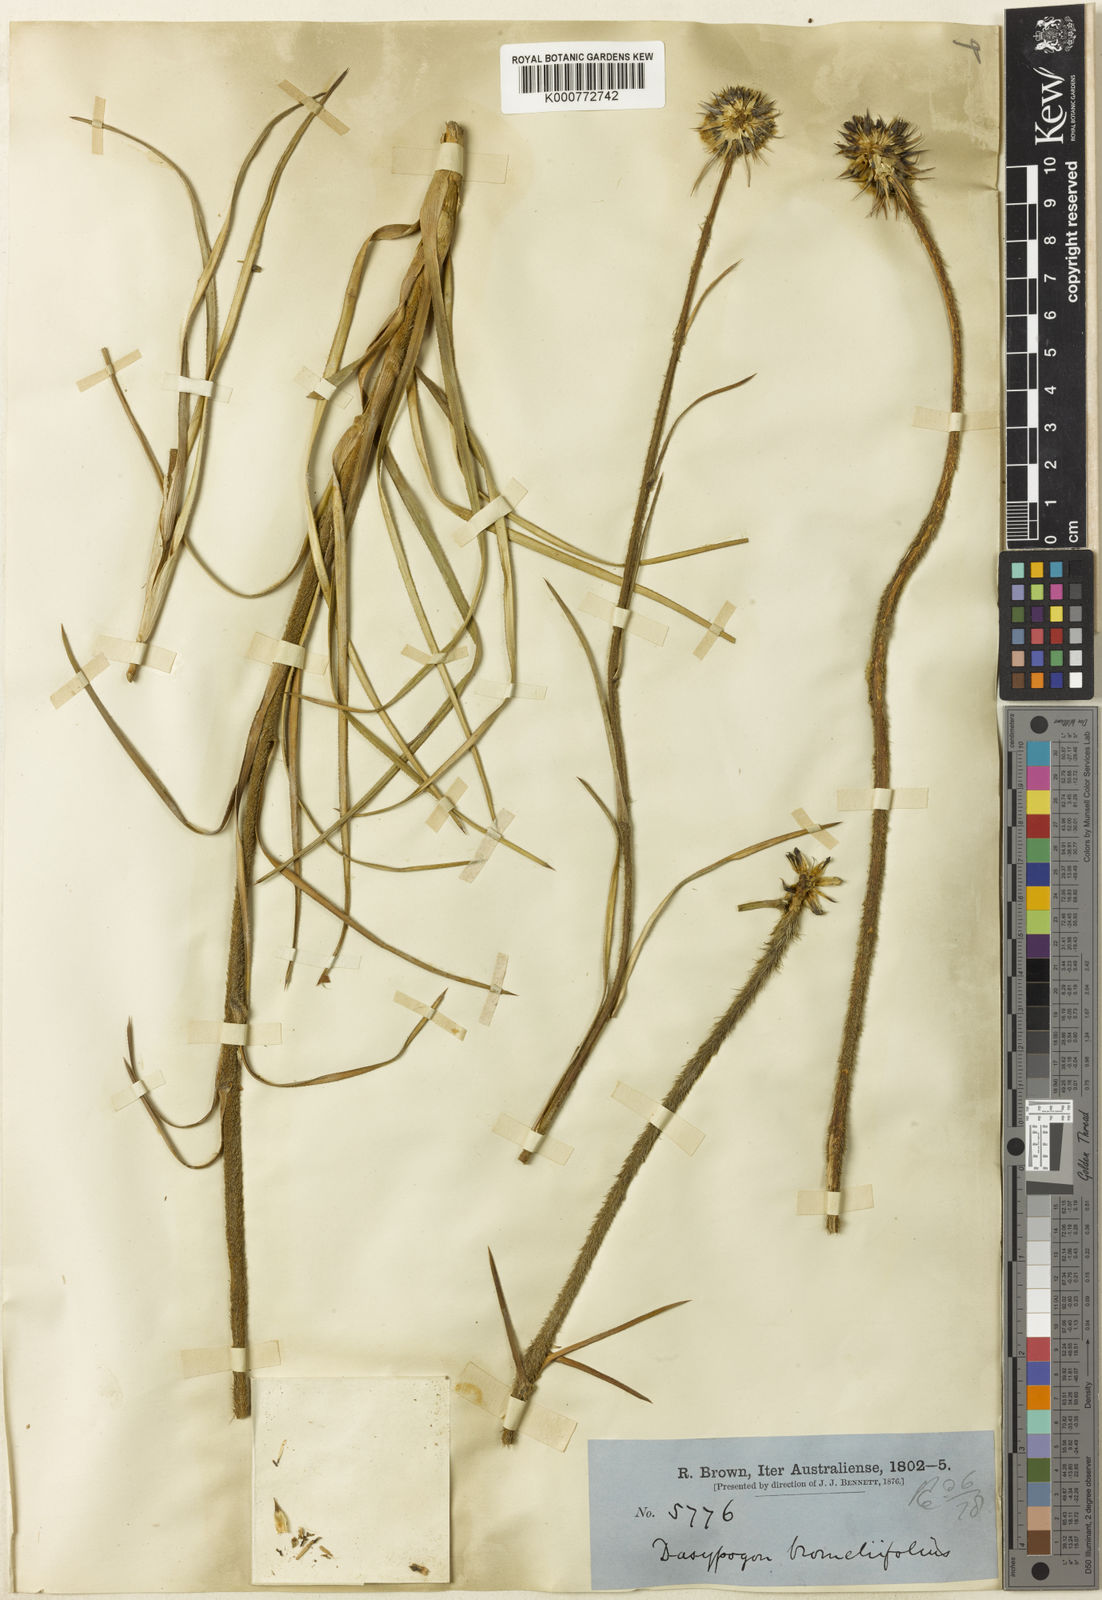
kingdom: Plantae
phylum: Tracheophyta
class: Liliopsida
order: Arecales
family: Dasypogonaceae
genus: Dasypogon
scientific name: Dasypogon bromeliifolius
